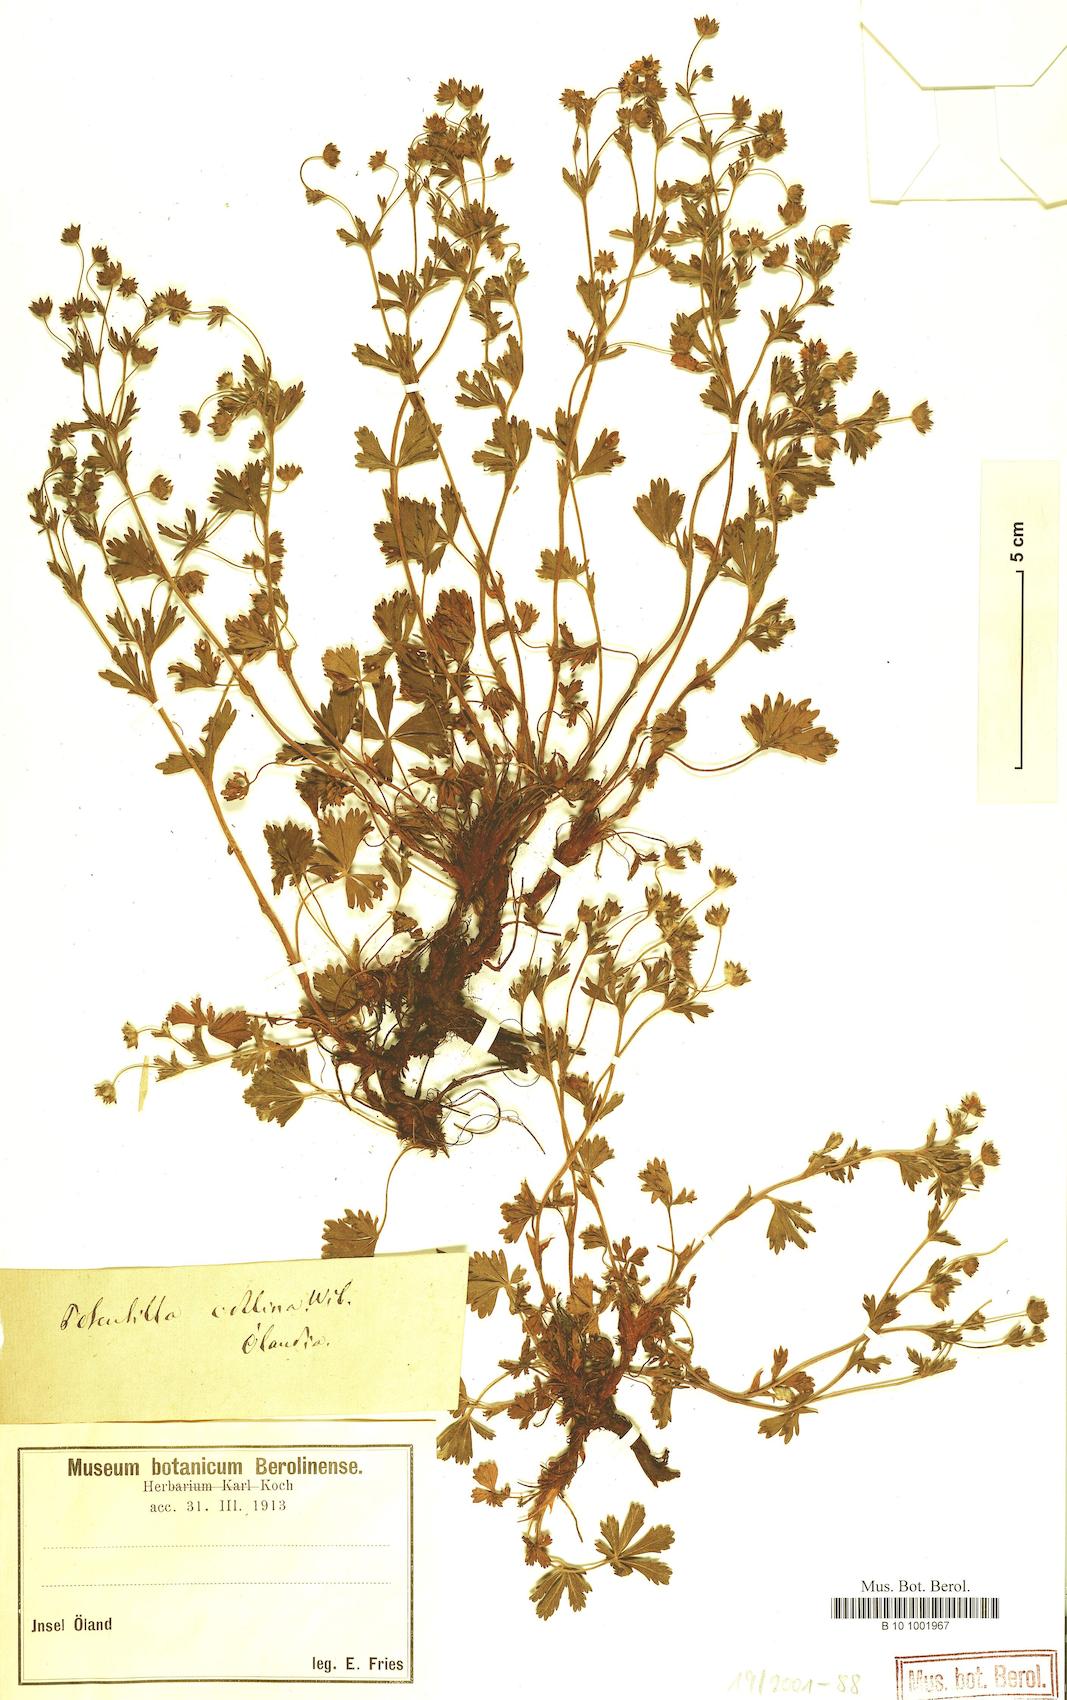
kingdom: Plantae
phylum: Tracheophyta
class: Magnoliopsida
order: Rosales
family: Rosaceae
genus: Potentilla
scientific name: Potentilla collina
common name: Palmleaf cinquefoil
